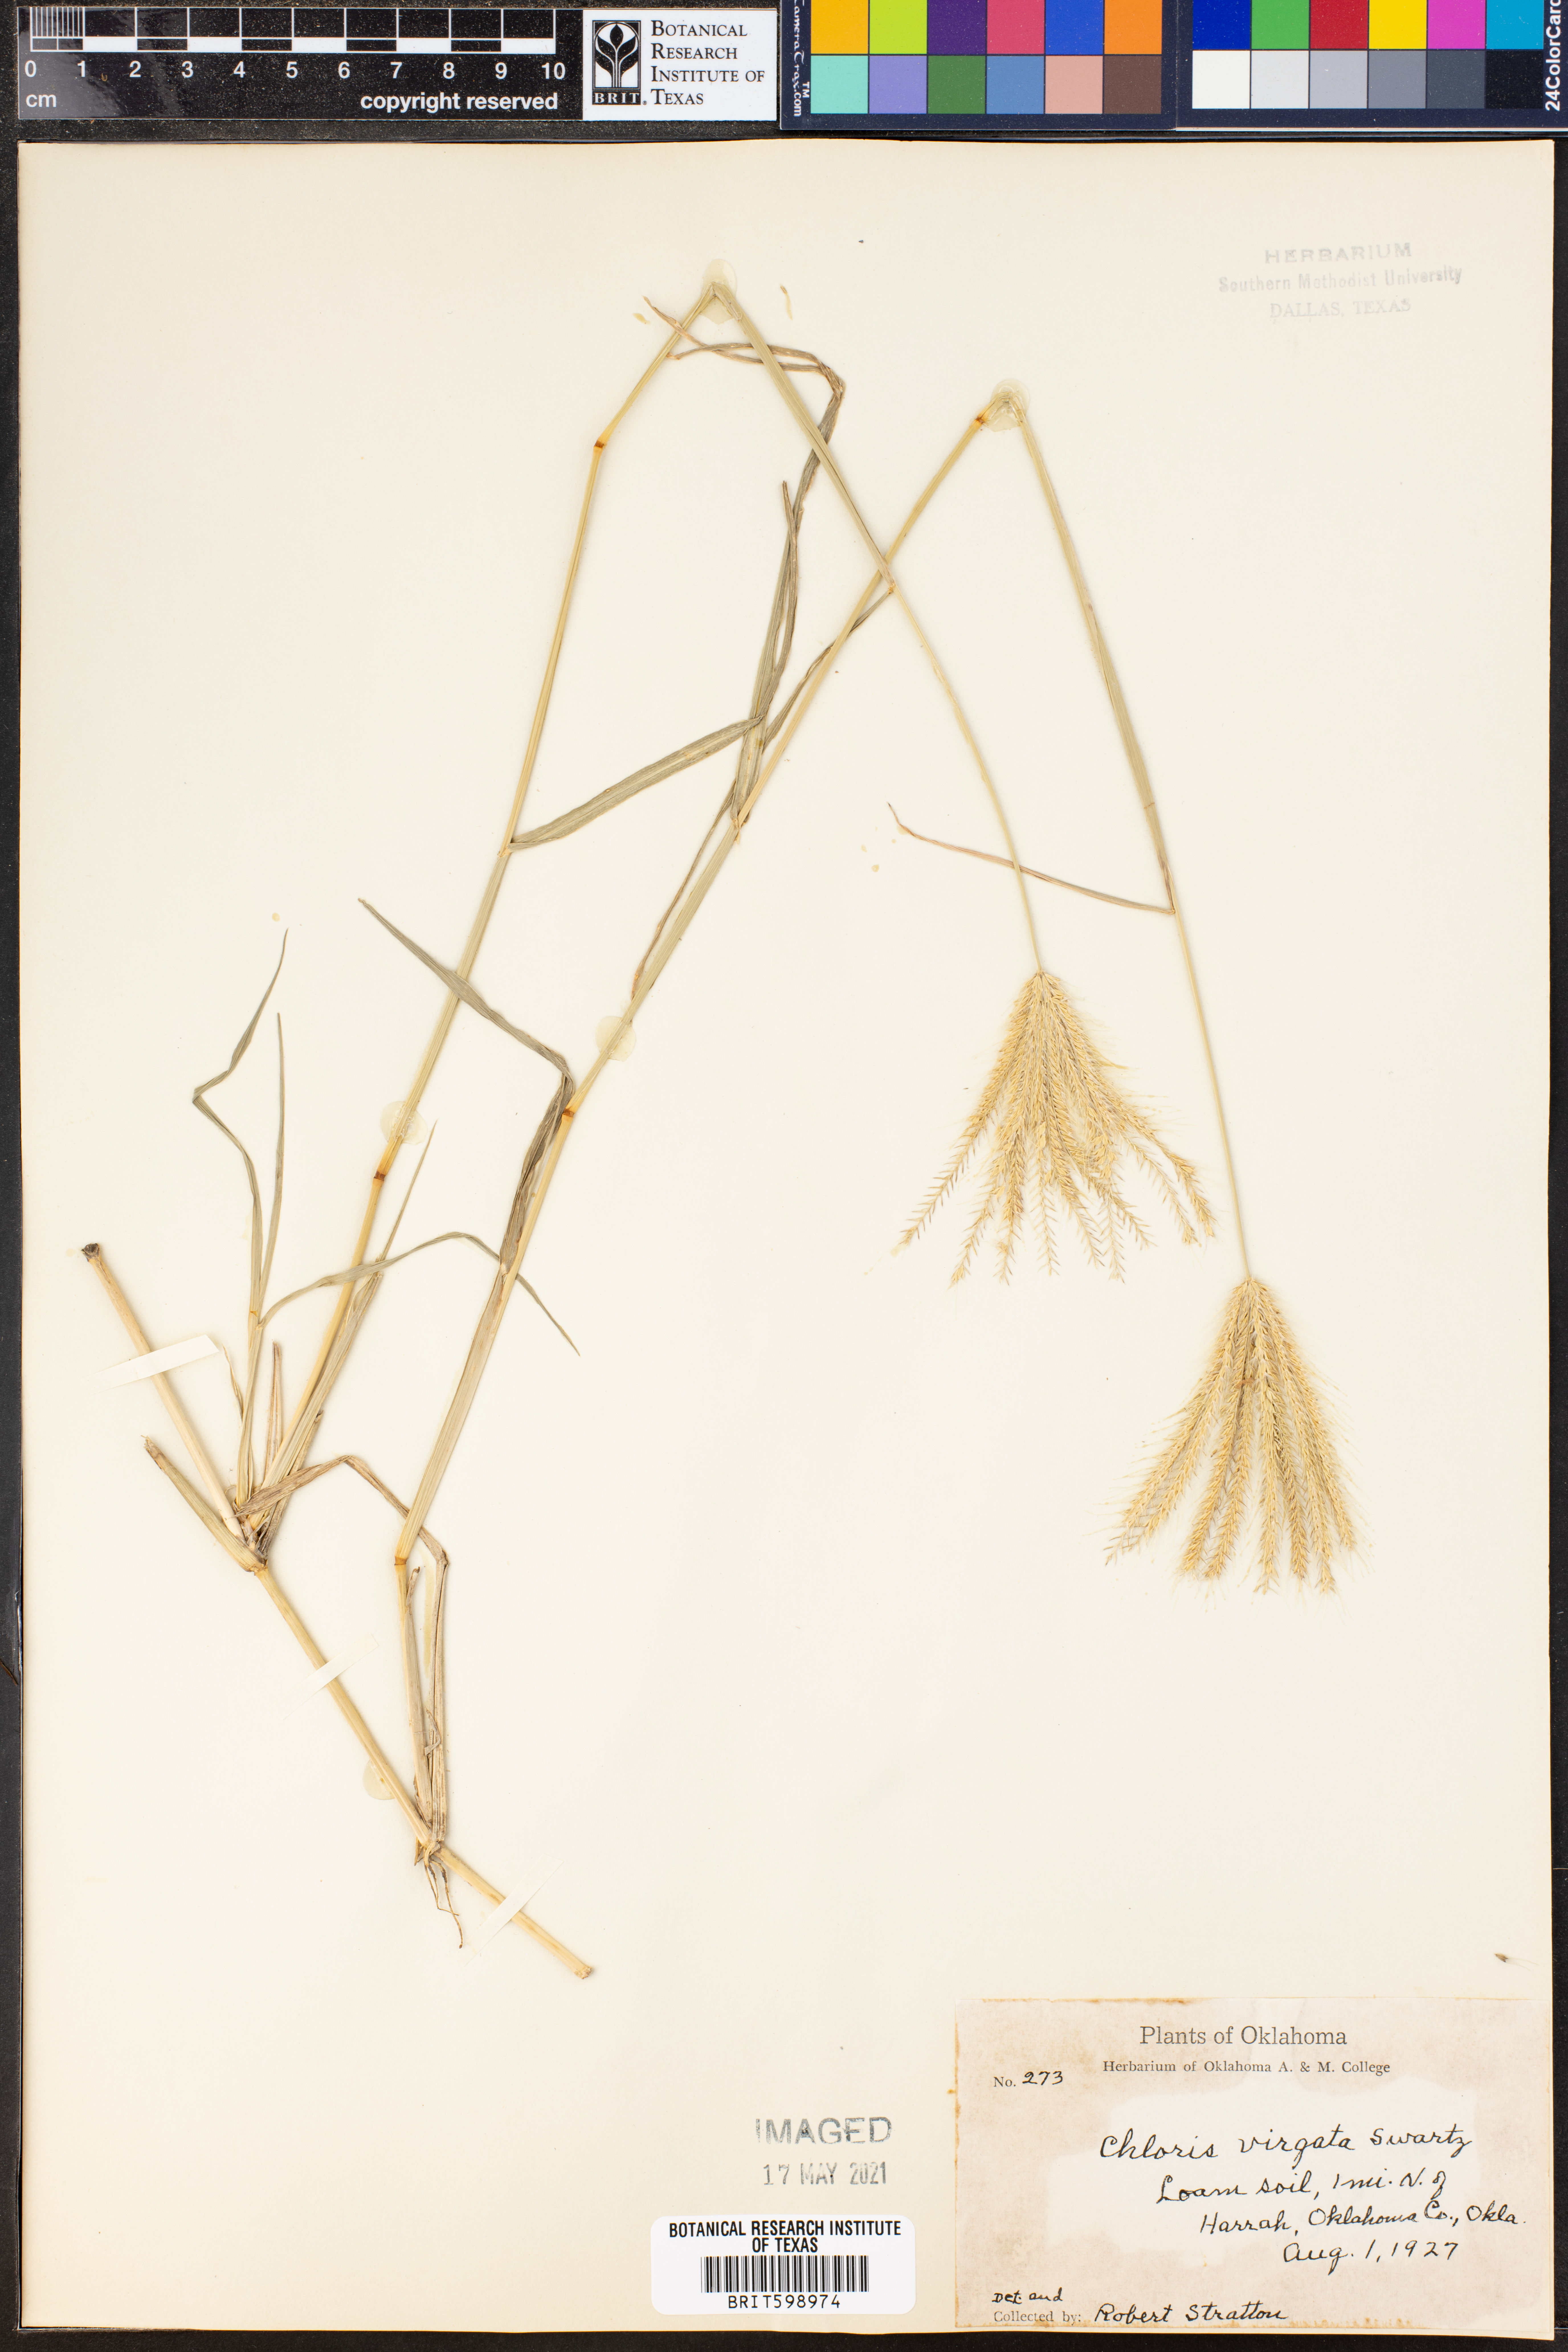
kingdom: Plantae
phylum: Tracheophyta
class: Liliopsida
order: Poales
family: Poaceae
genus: Chloris
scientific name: Chloris virgata
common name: Feathery rhodes-grass
